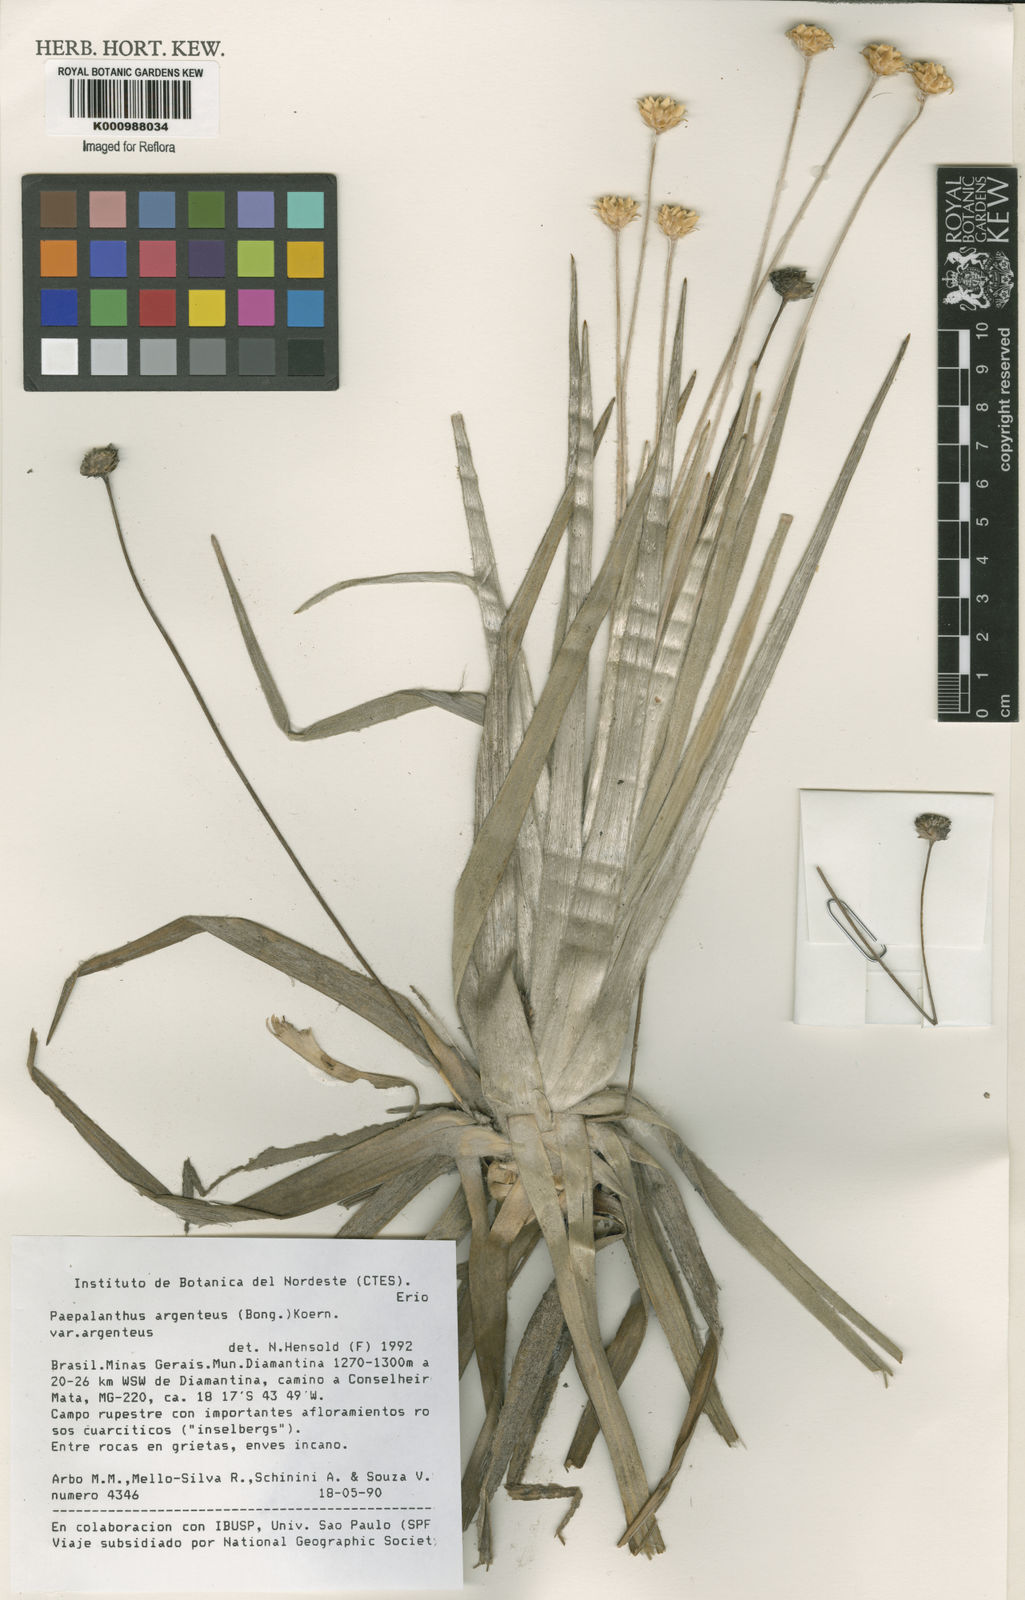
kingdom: Plantae
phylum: Tracheophyta
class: Liliopsida
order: Poales
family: Eriocaulaceae
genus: Paepalanthus
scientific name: Paepalanthus
